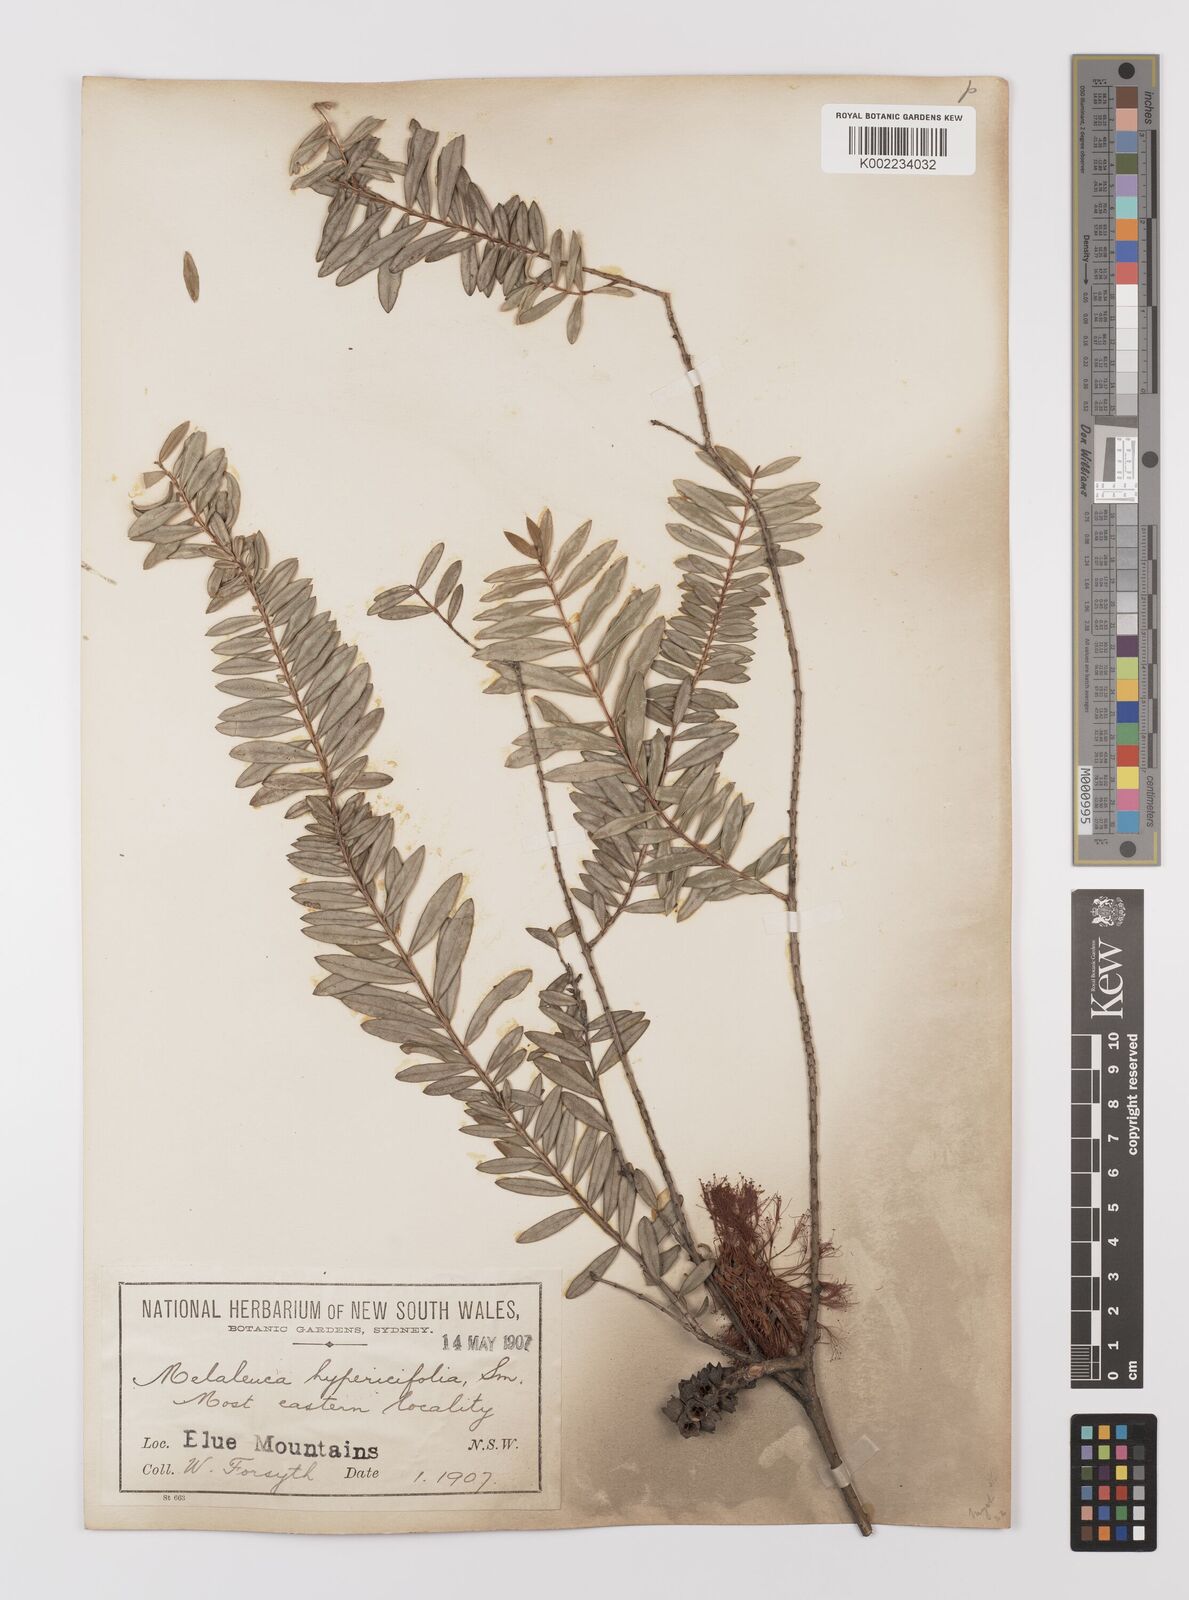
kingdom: Plantae
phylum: Tracheophyta
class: Magnoliopsida
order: Myrtales
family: Myrtaceae
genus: Melaleuca
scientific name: Melaleuca hypericifolia
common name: Red honey myrtle
